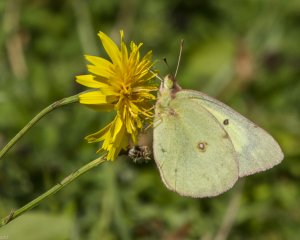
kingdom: Animalia
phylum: Arthropoda
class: Insecta
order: Lepidoptera
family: Pieridae
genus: Colias
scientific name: Colias philodice
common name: Clouded Sulphur
